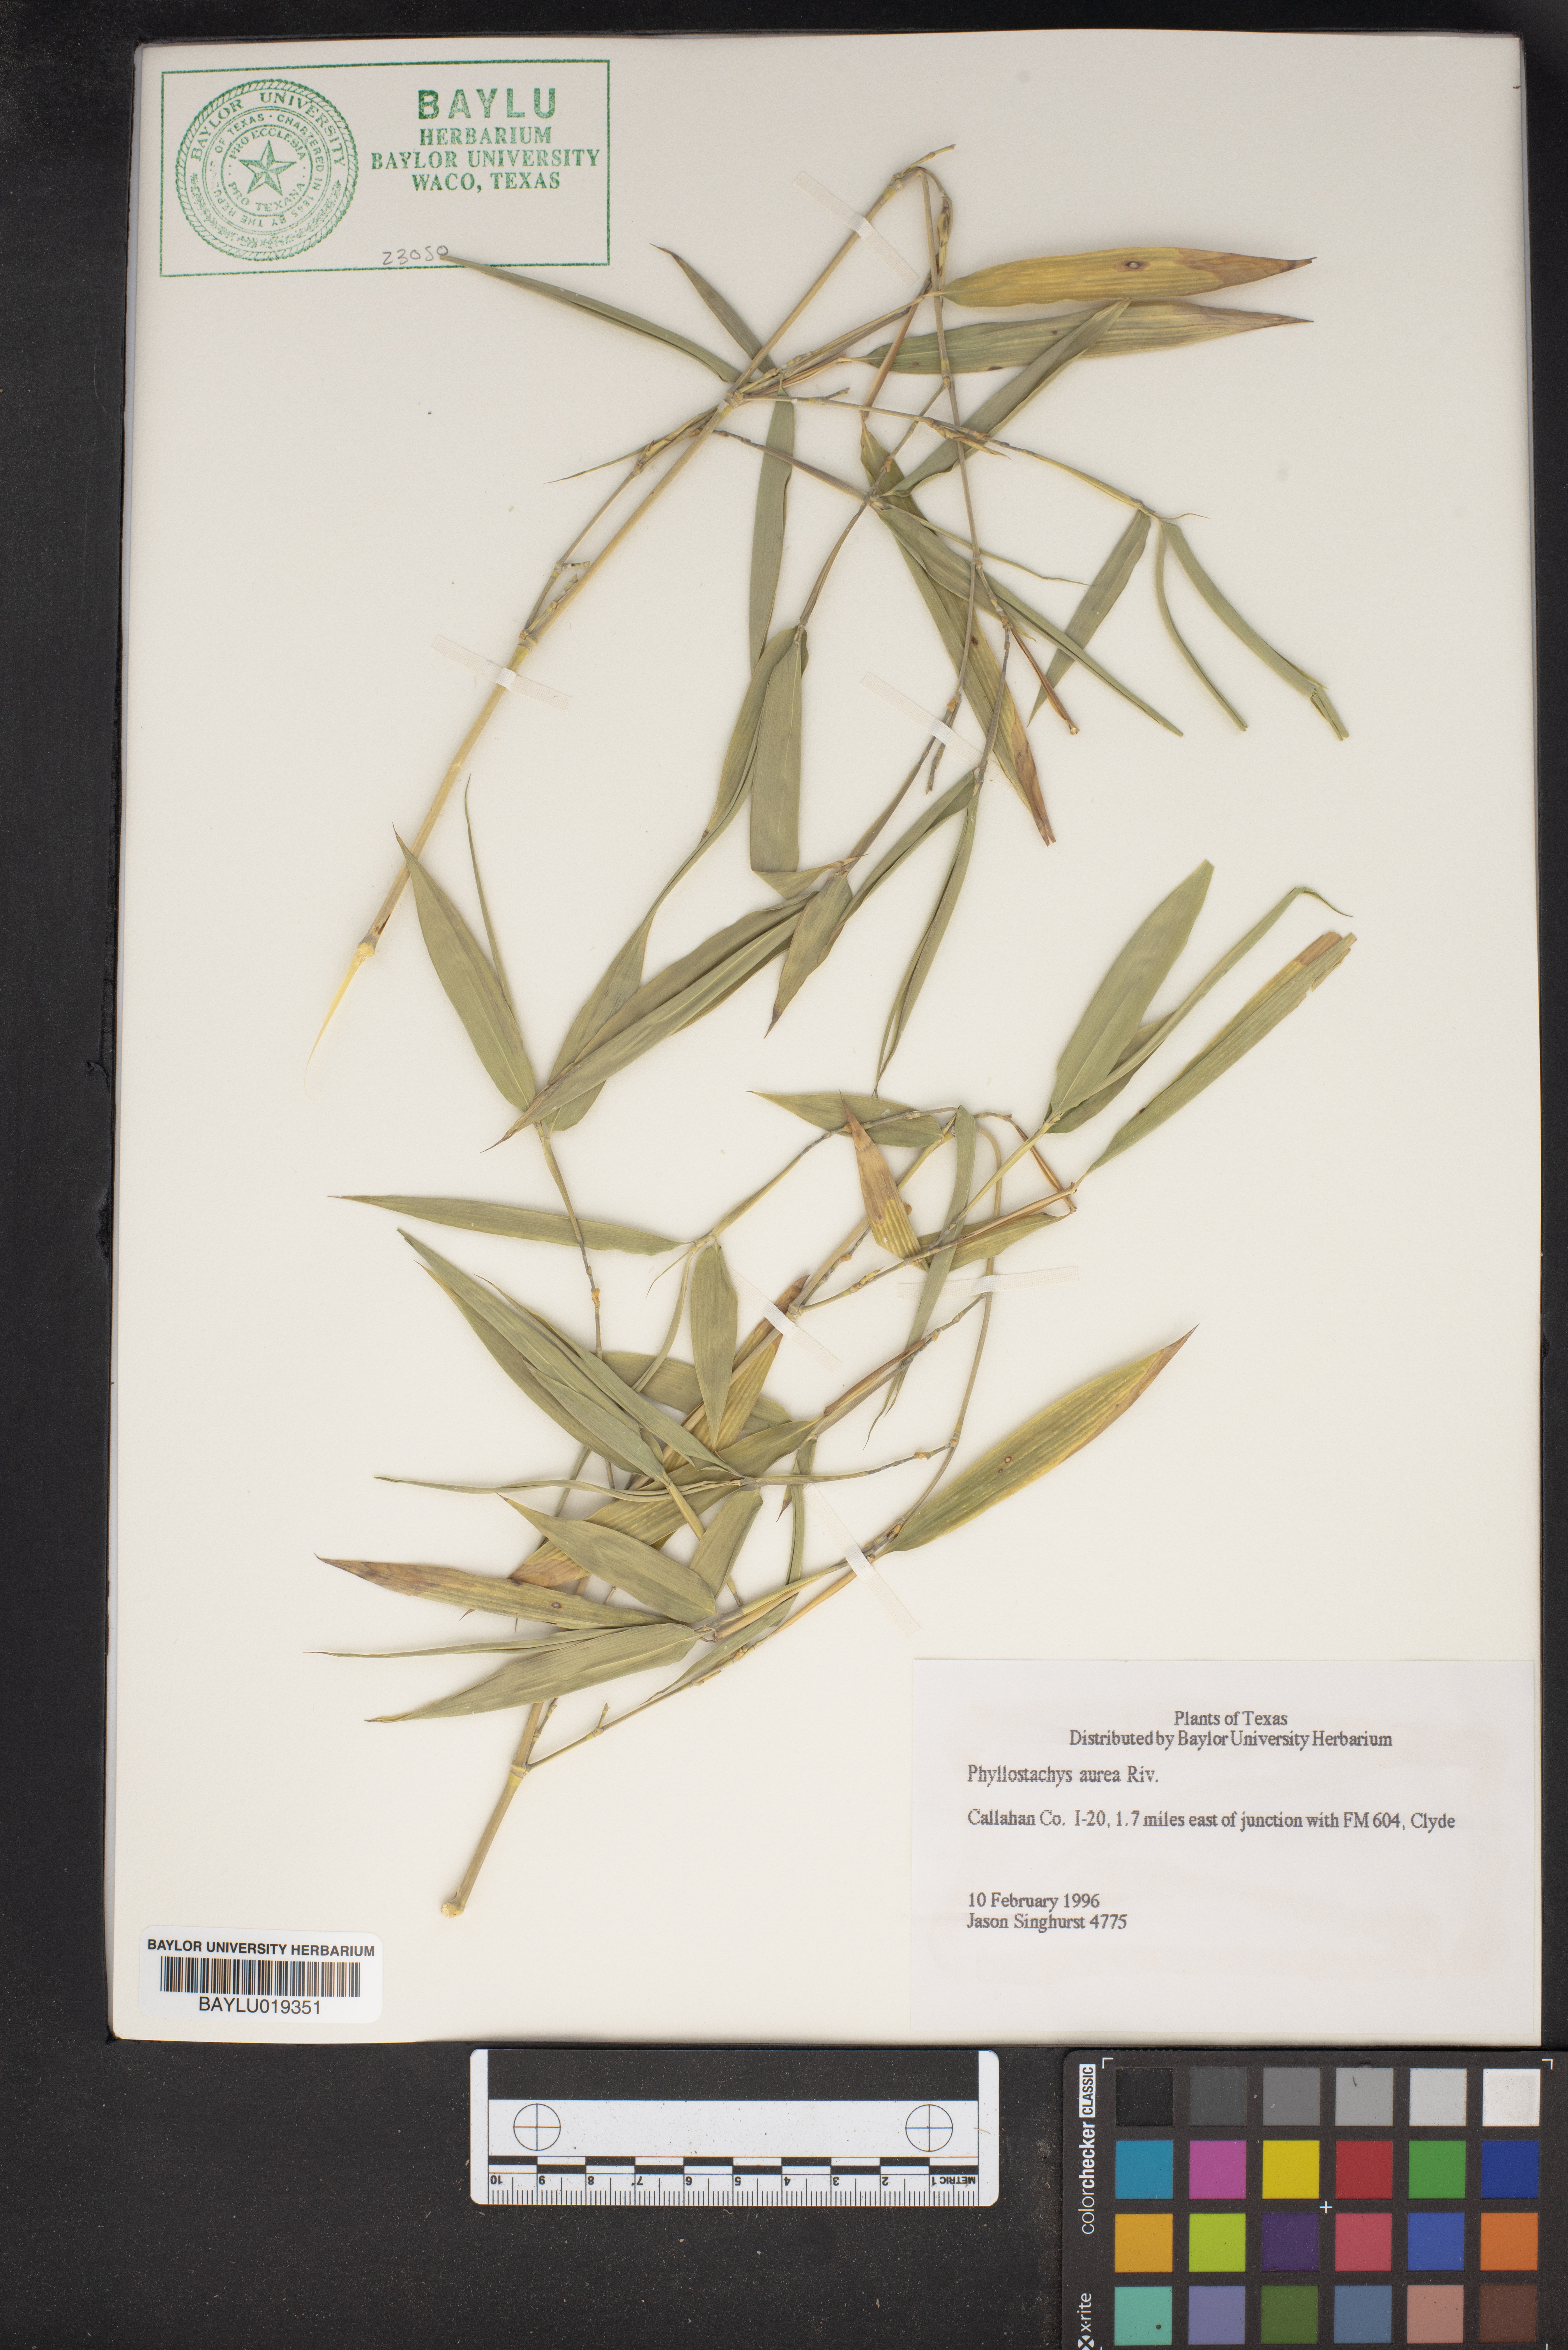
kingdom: Plantae
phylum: Tracheophyta
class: Liliopsida
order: Poales
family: Poaceae
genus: Phyllostachys
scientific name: Phyllostachys aurea
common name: Golden bamboo
